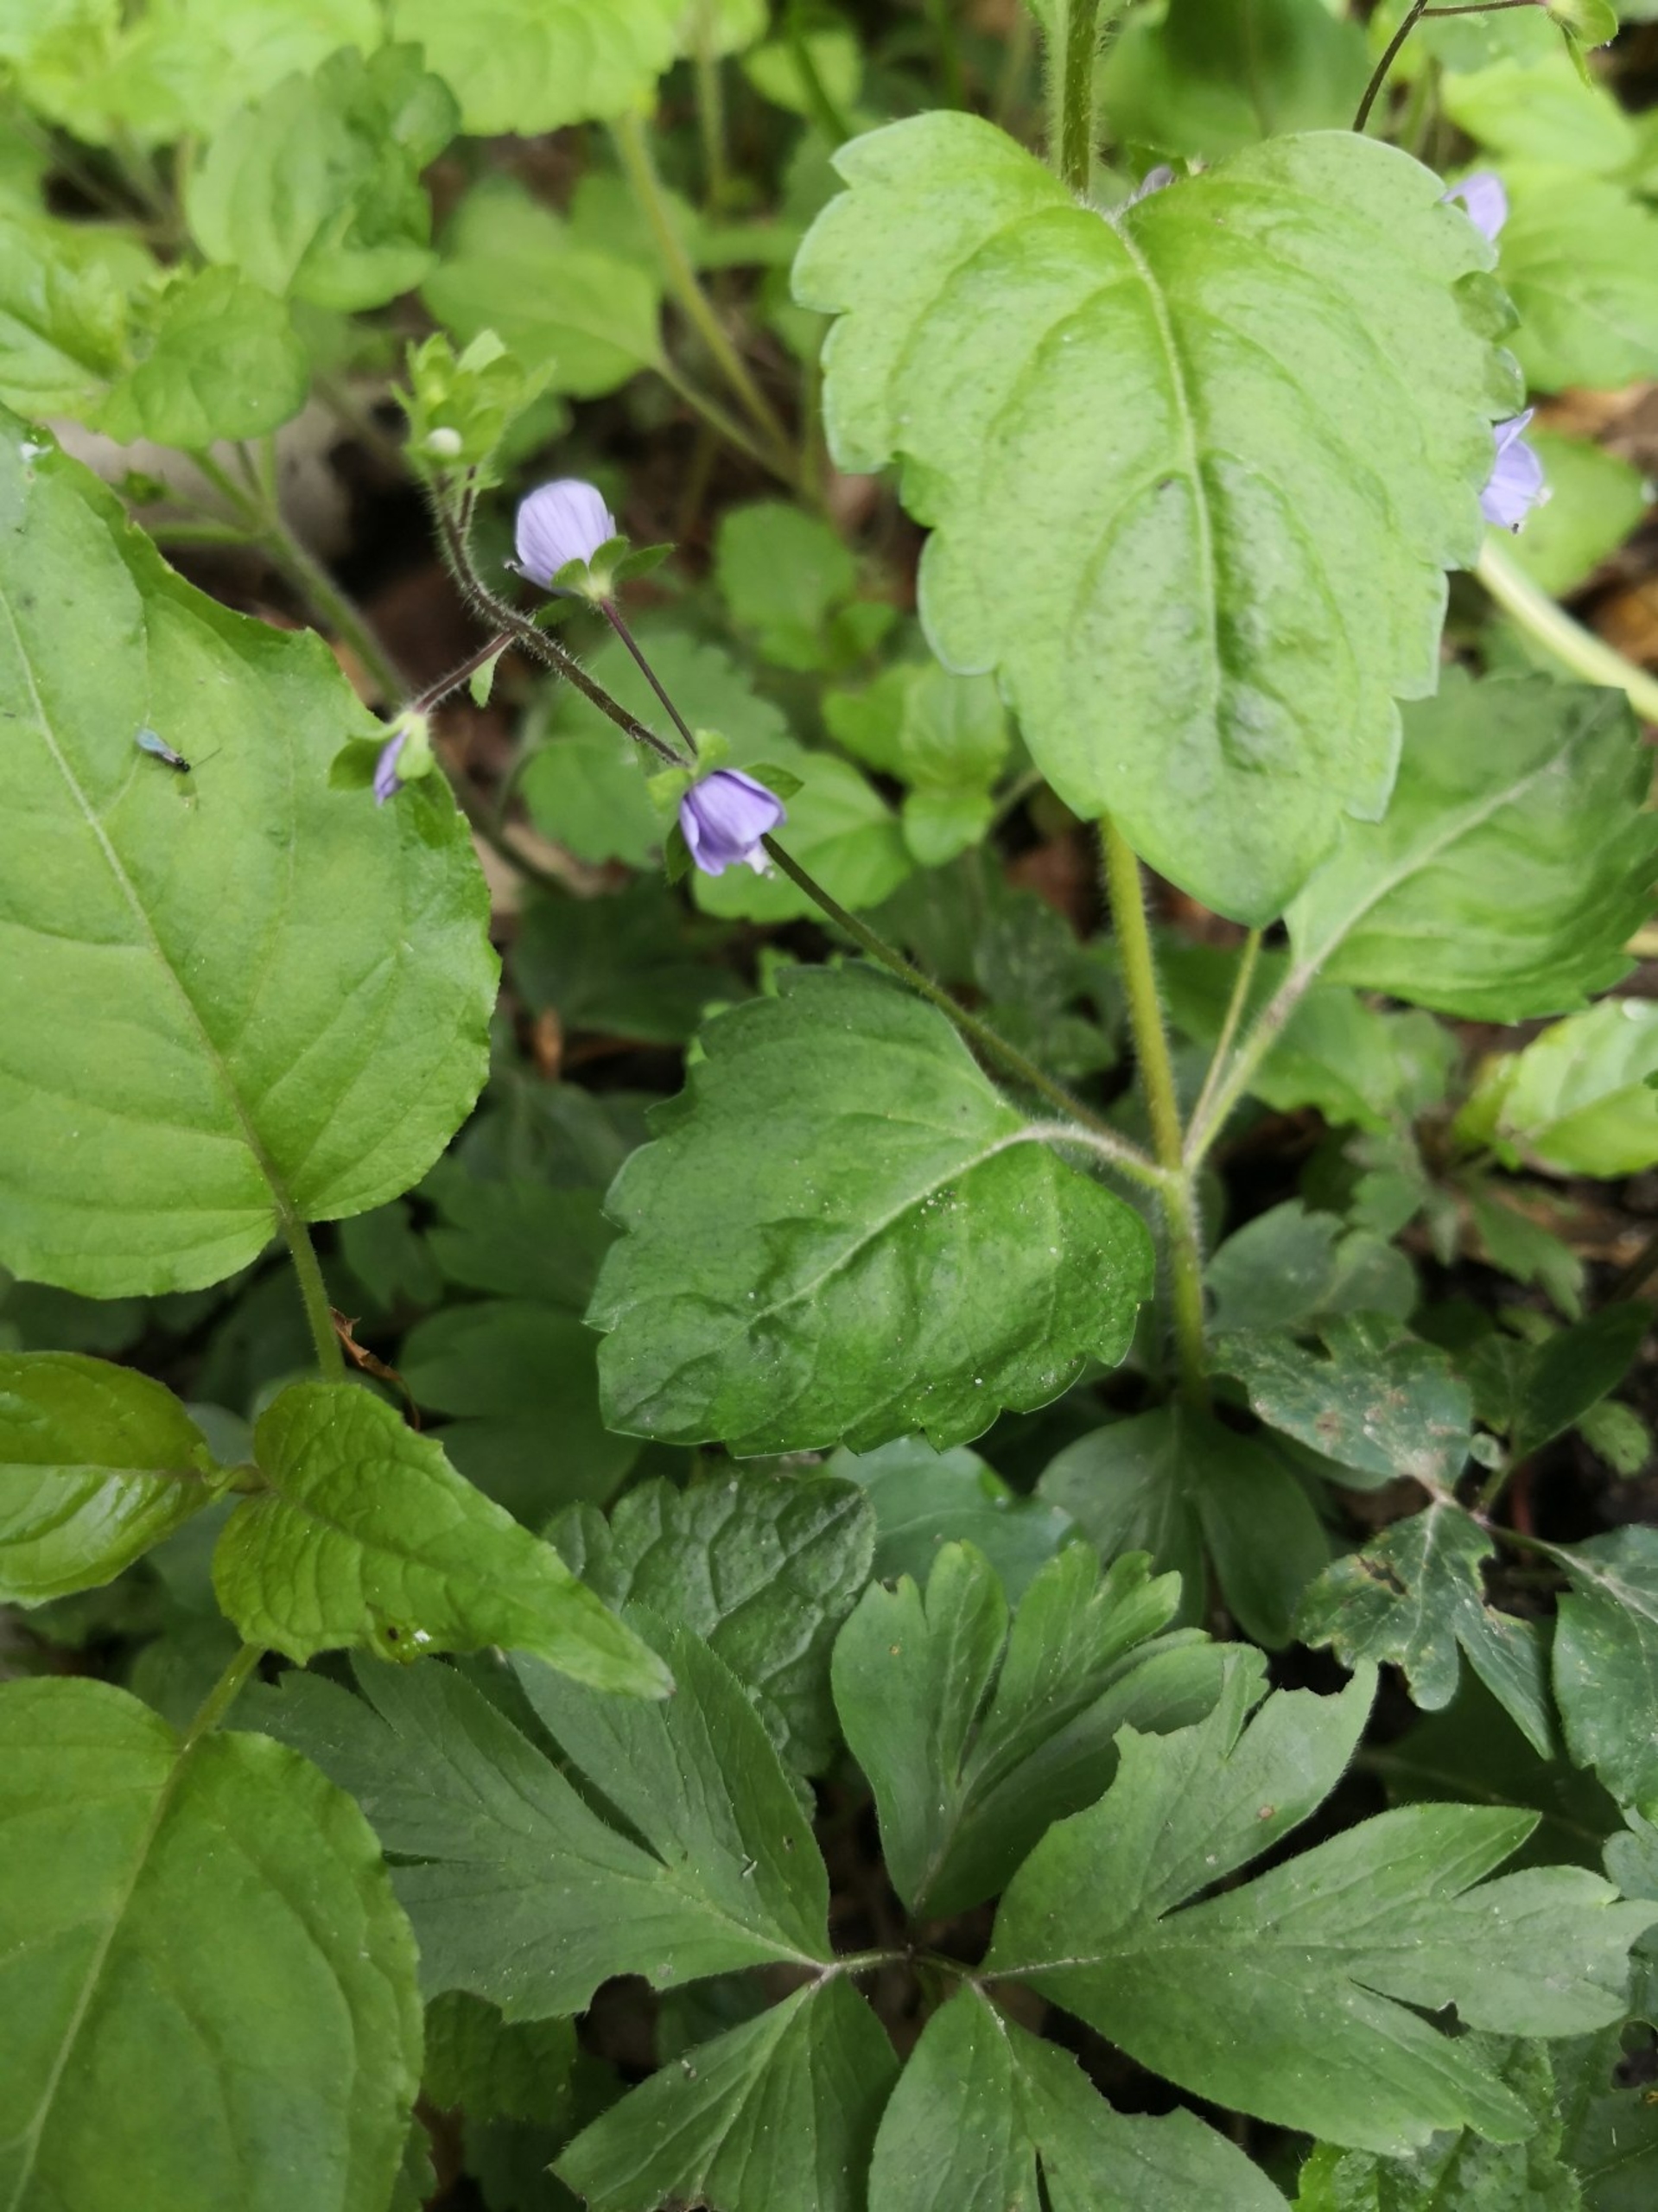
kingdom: Plantae
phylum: Tracheophyta
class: Magnoliopsida
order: Lamiales
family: Plantaginaceae
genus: Veronica
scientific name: Veronica montana
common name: Bjerg-ærenpris
